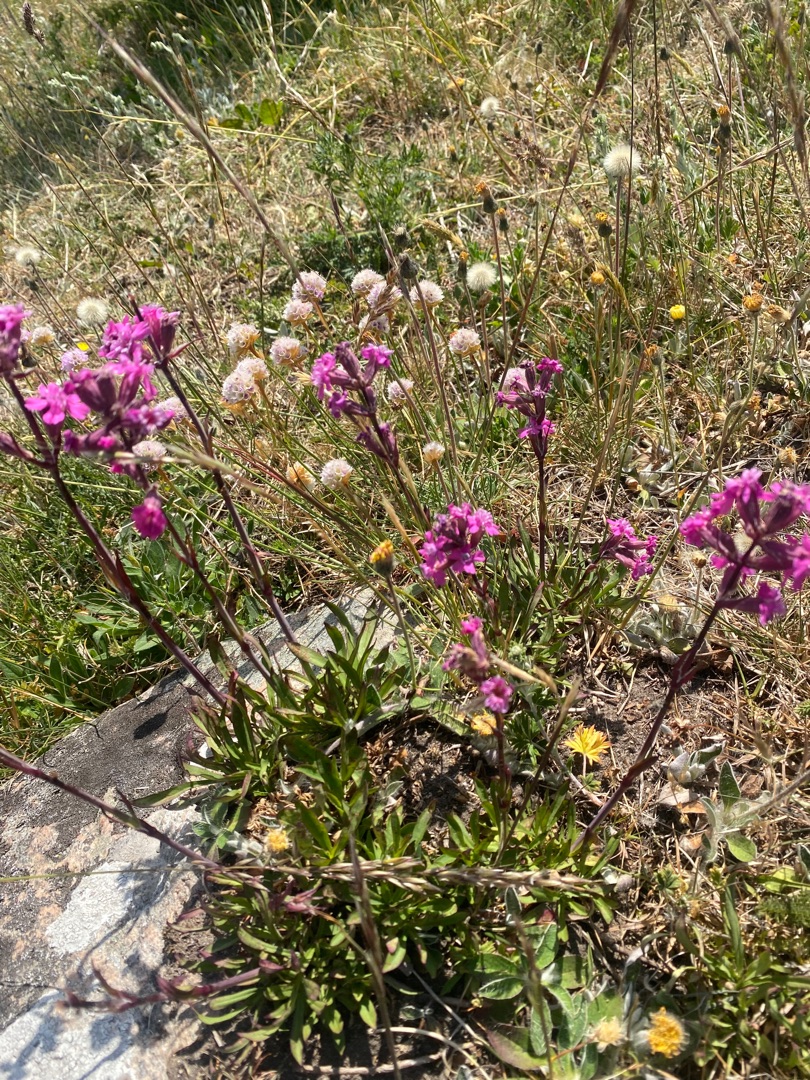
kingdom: Plantae
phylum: Tracheophyta
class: Magnoliopsida
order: Caryophyllales
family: Caryophyllaceae
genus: Viscaria
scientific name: Viscaria vulgaris
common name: Tjærenellike
